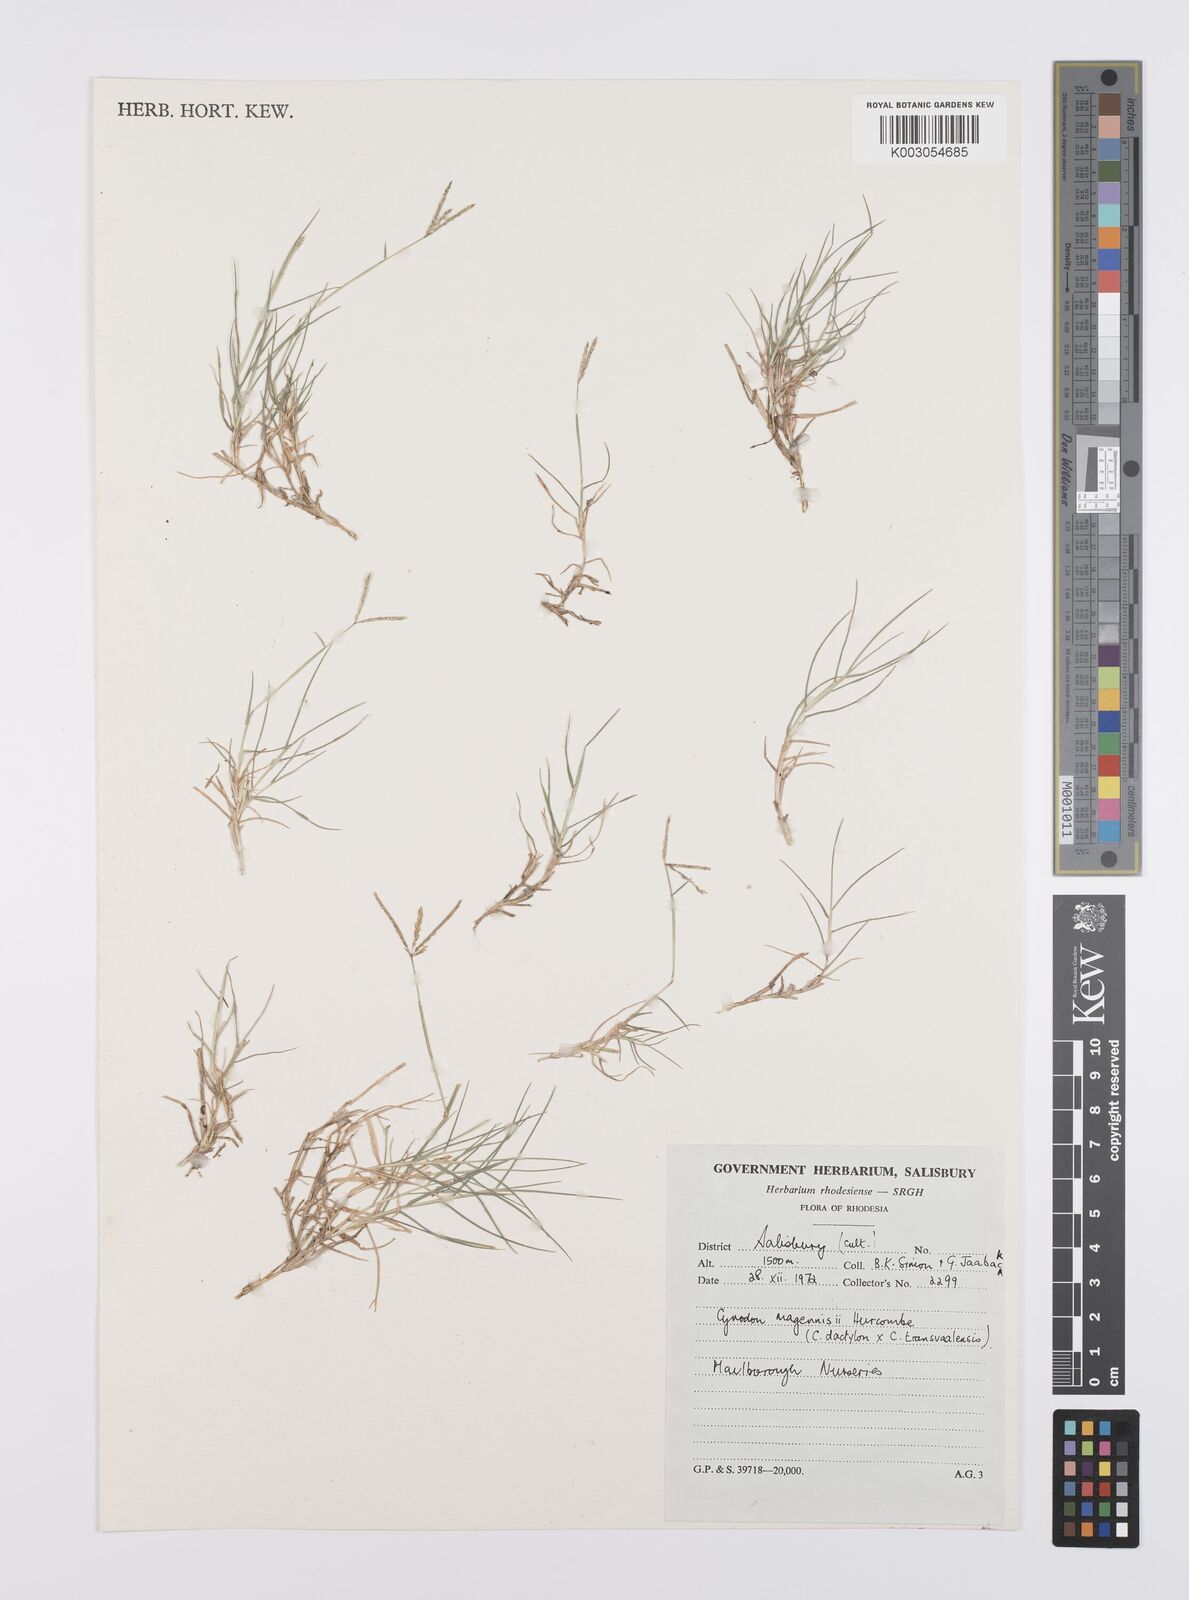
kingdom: Plantae
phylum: Tracheophyta
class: Liliopsida
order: Poales
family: Poaceae
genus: Cynodon
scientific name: Cynodon magennisii
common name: Bermudagrass
